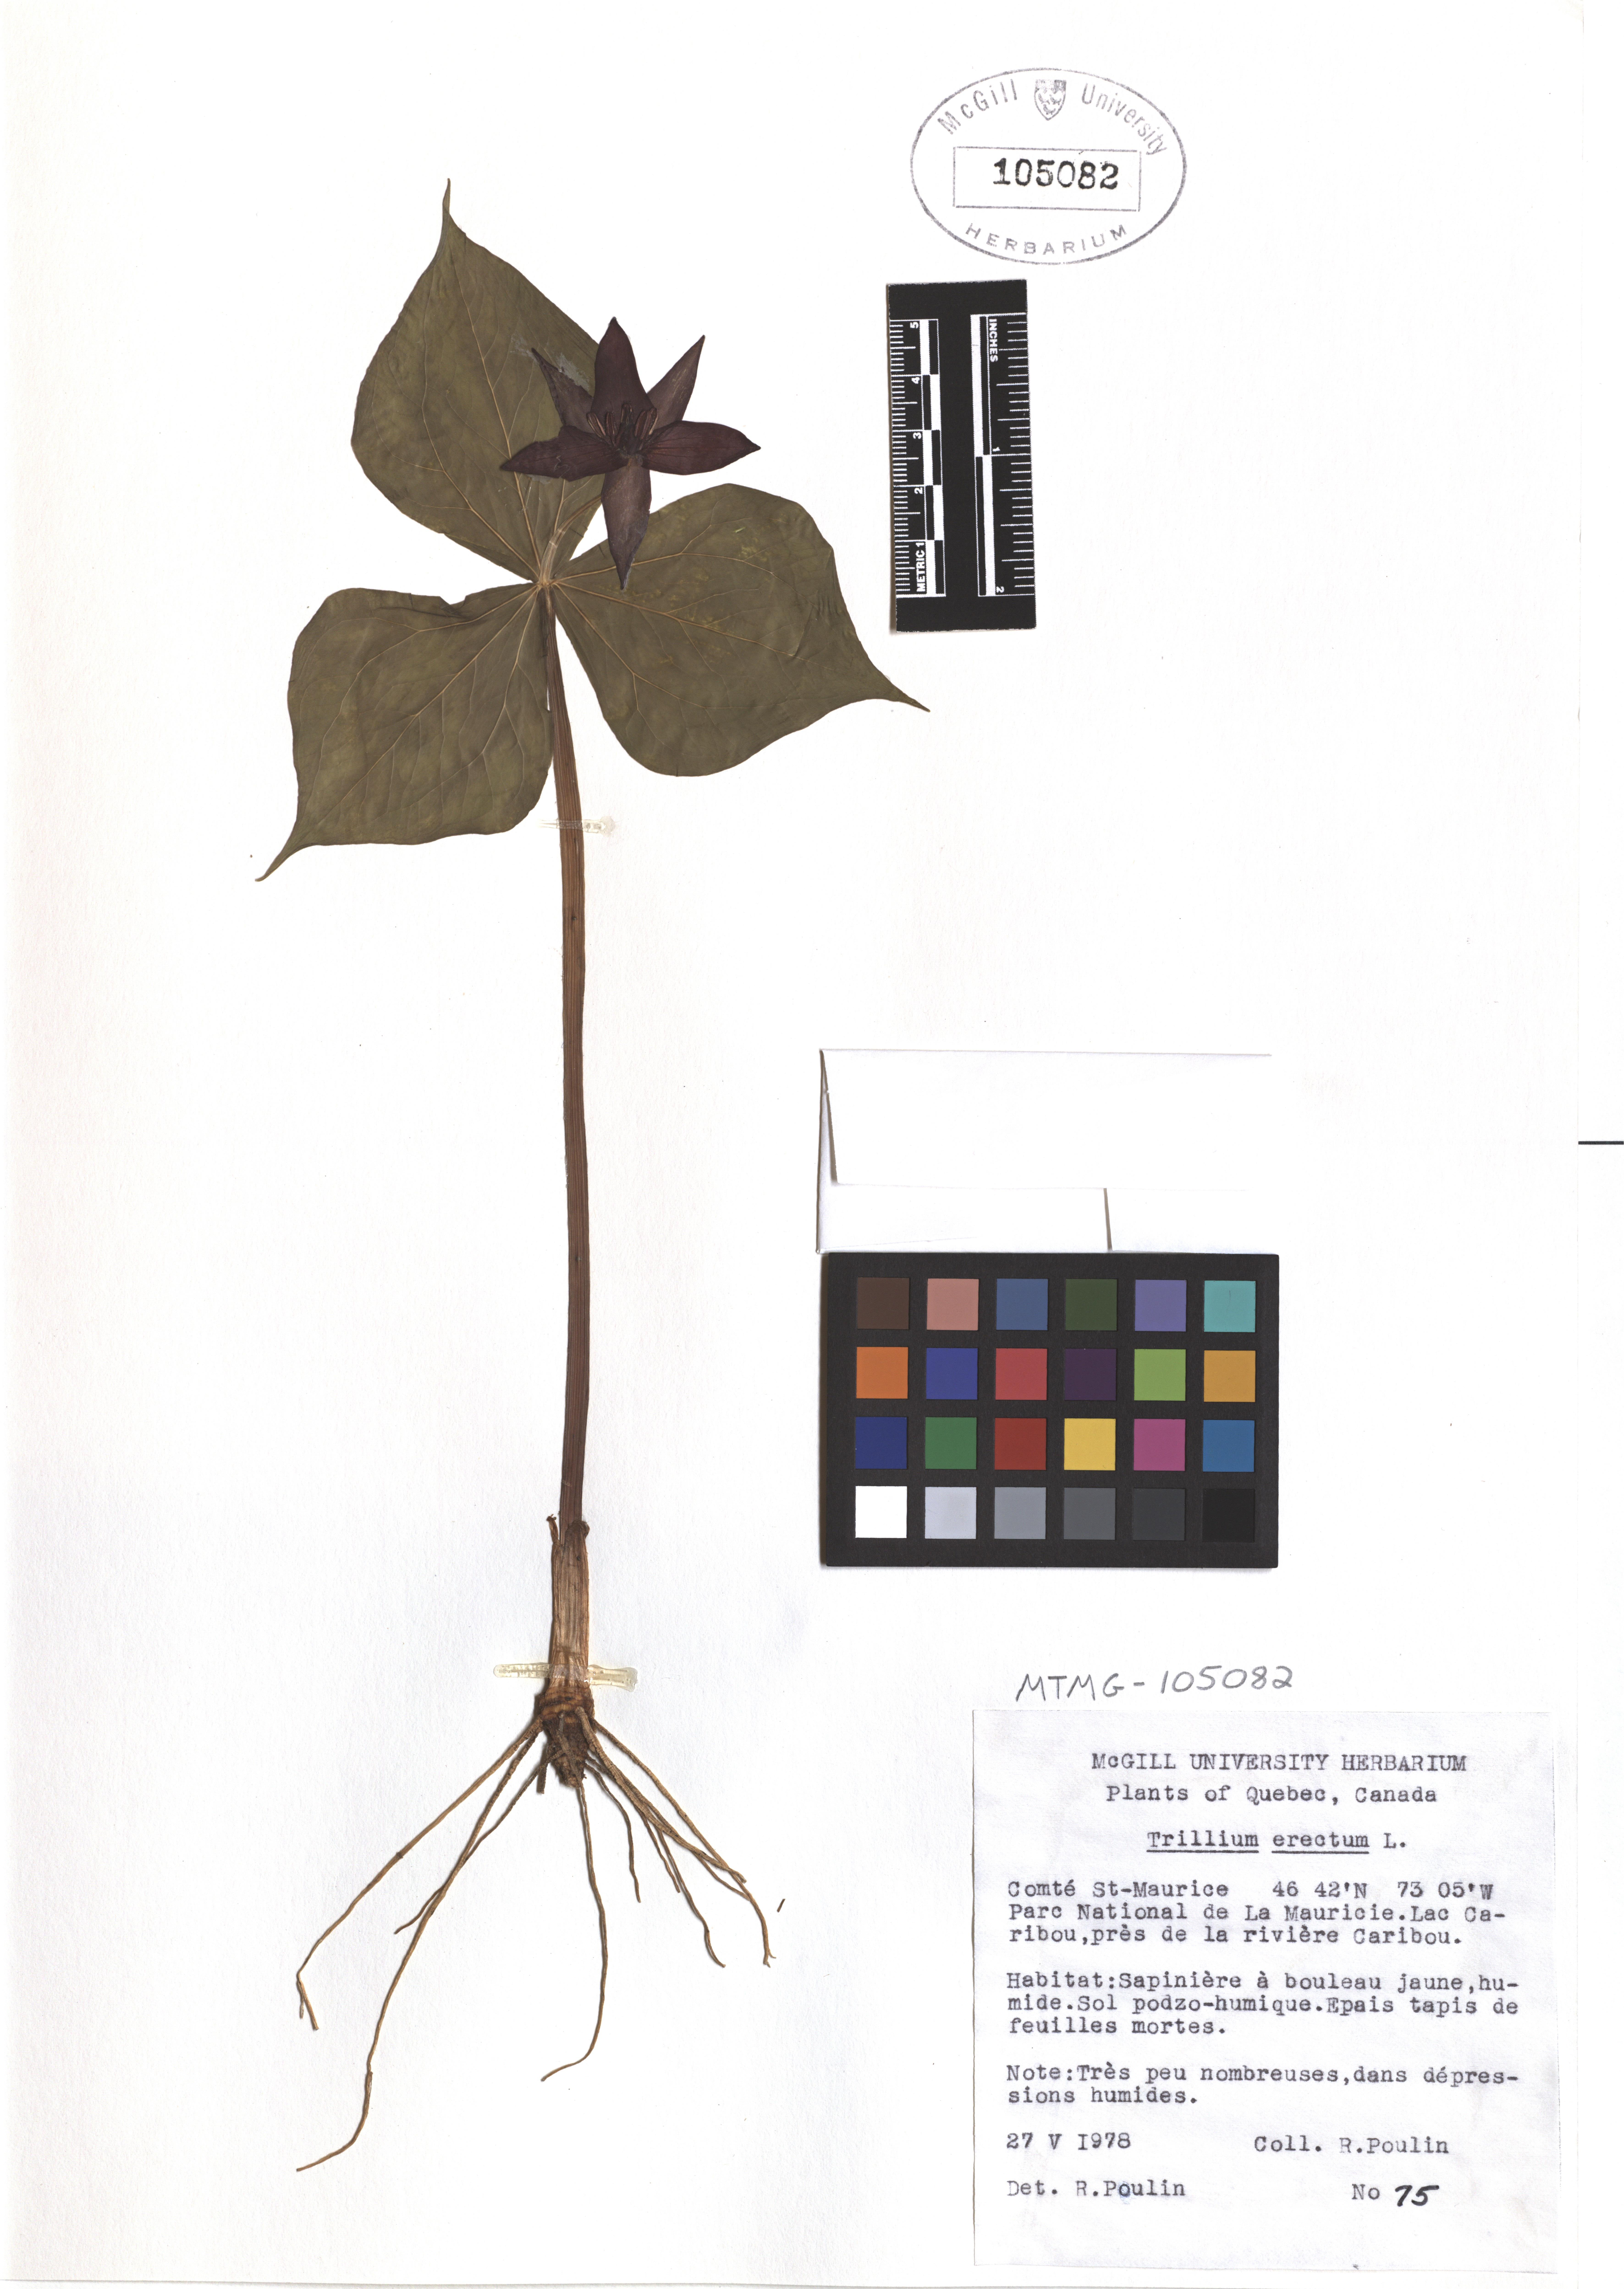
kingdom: Plantae
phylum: Tracheophyta
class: Liliopsida
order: Liliales
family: Melanthiaceae
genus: Trillium
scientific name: Trillium erectum
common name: Purple trillium
